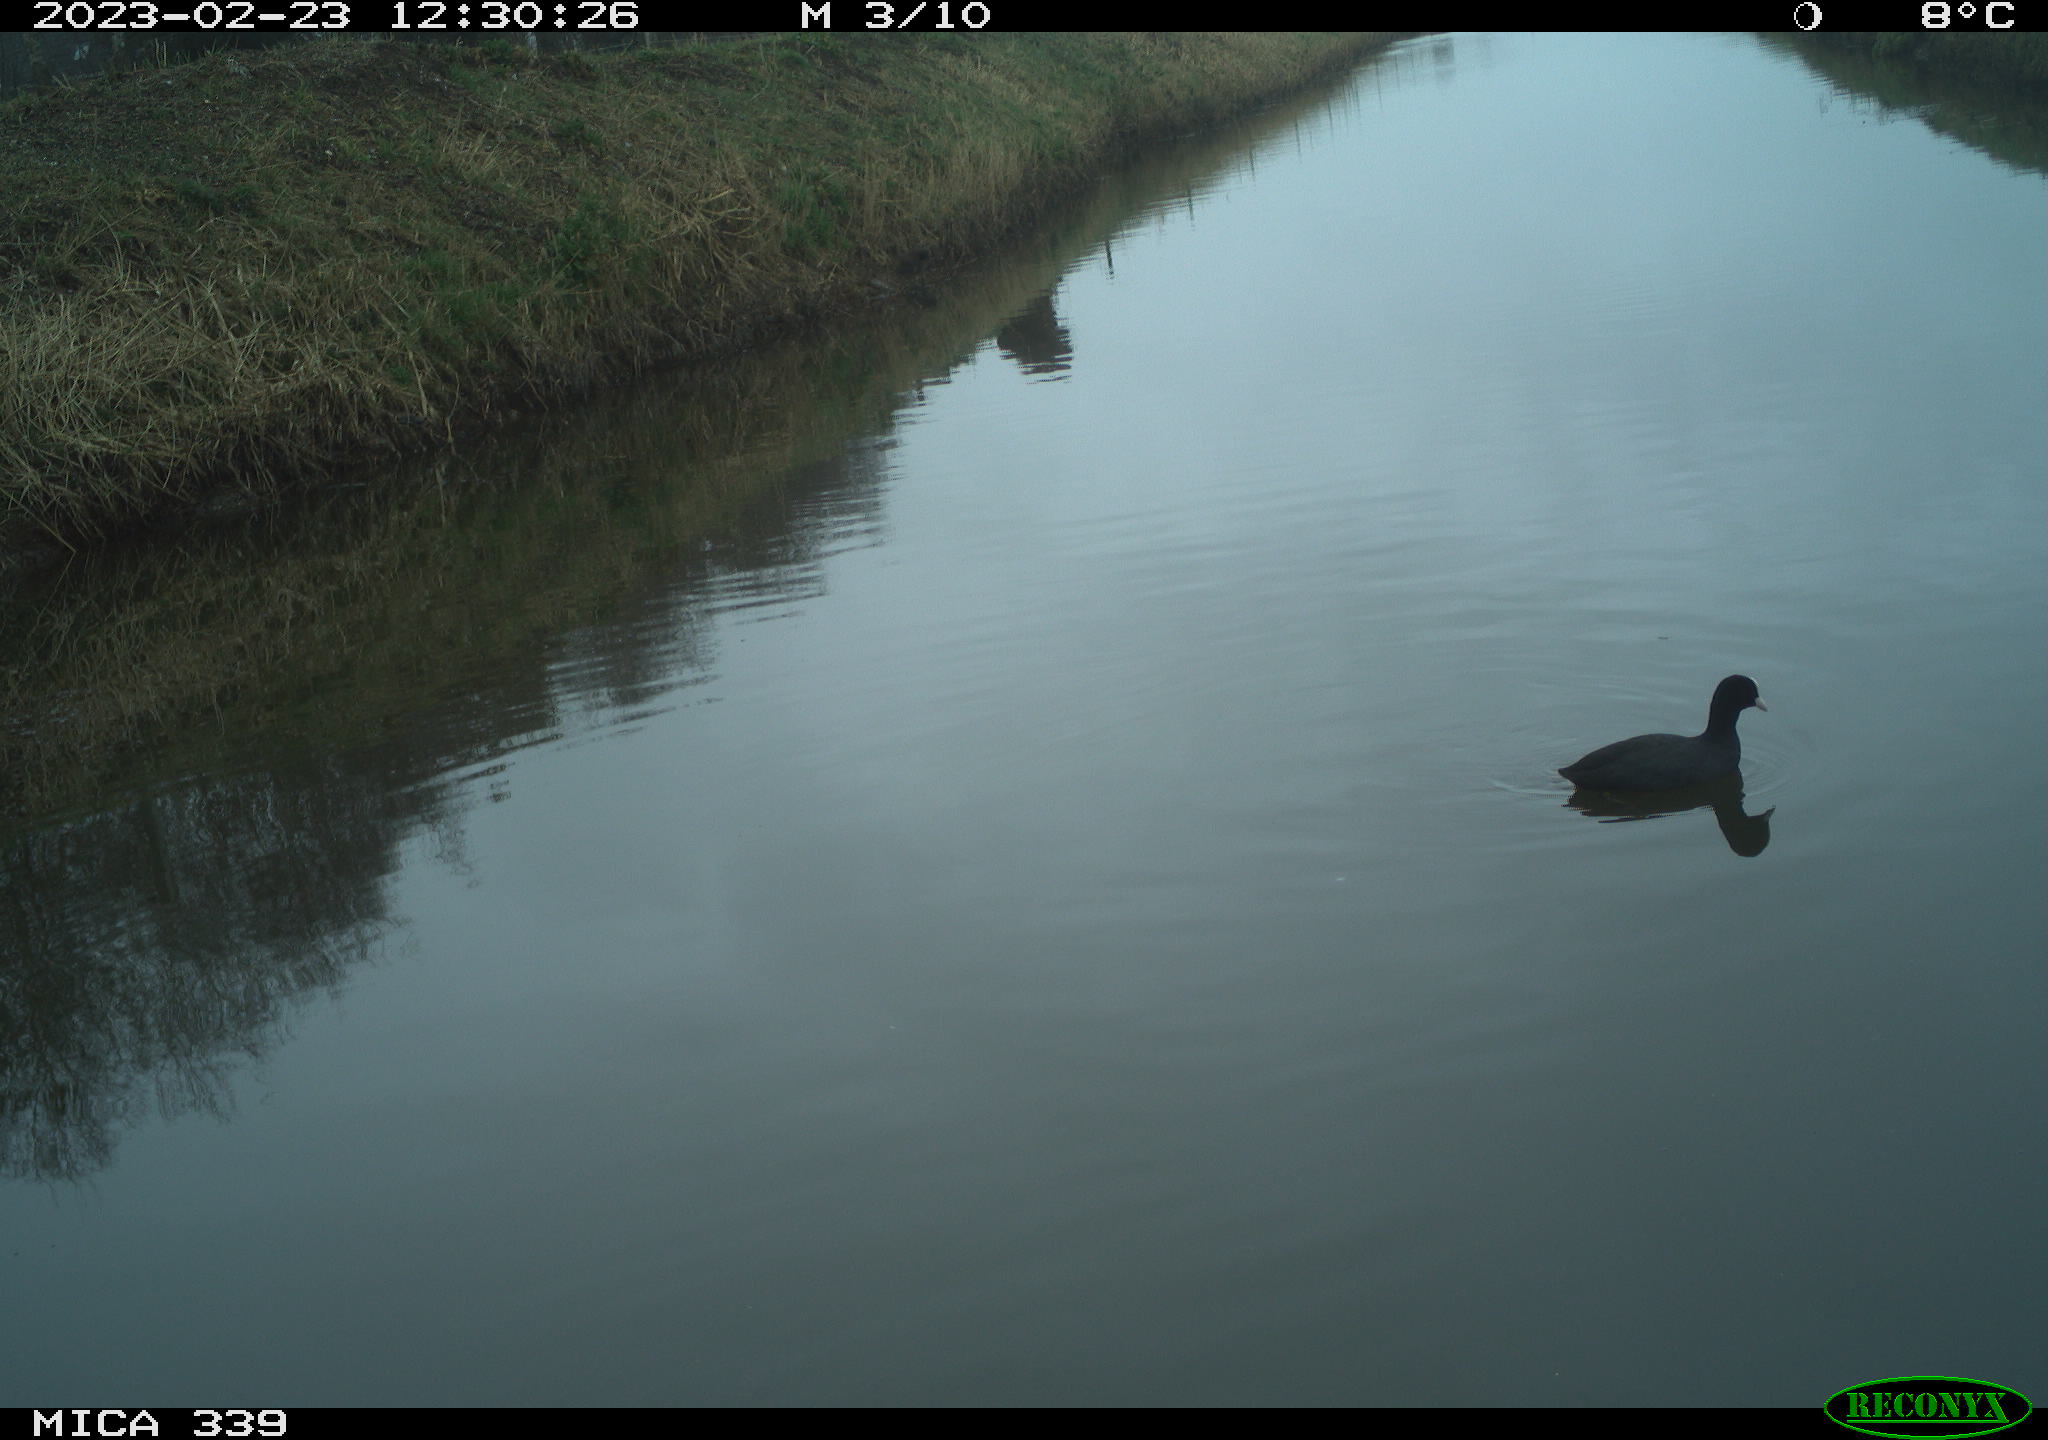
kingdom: Animalia
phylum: Chordata
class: Aves
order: Gruiformes
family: Rallidae
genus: Fulica
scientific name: Fulica atra
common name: Eurasian coot
